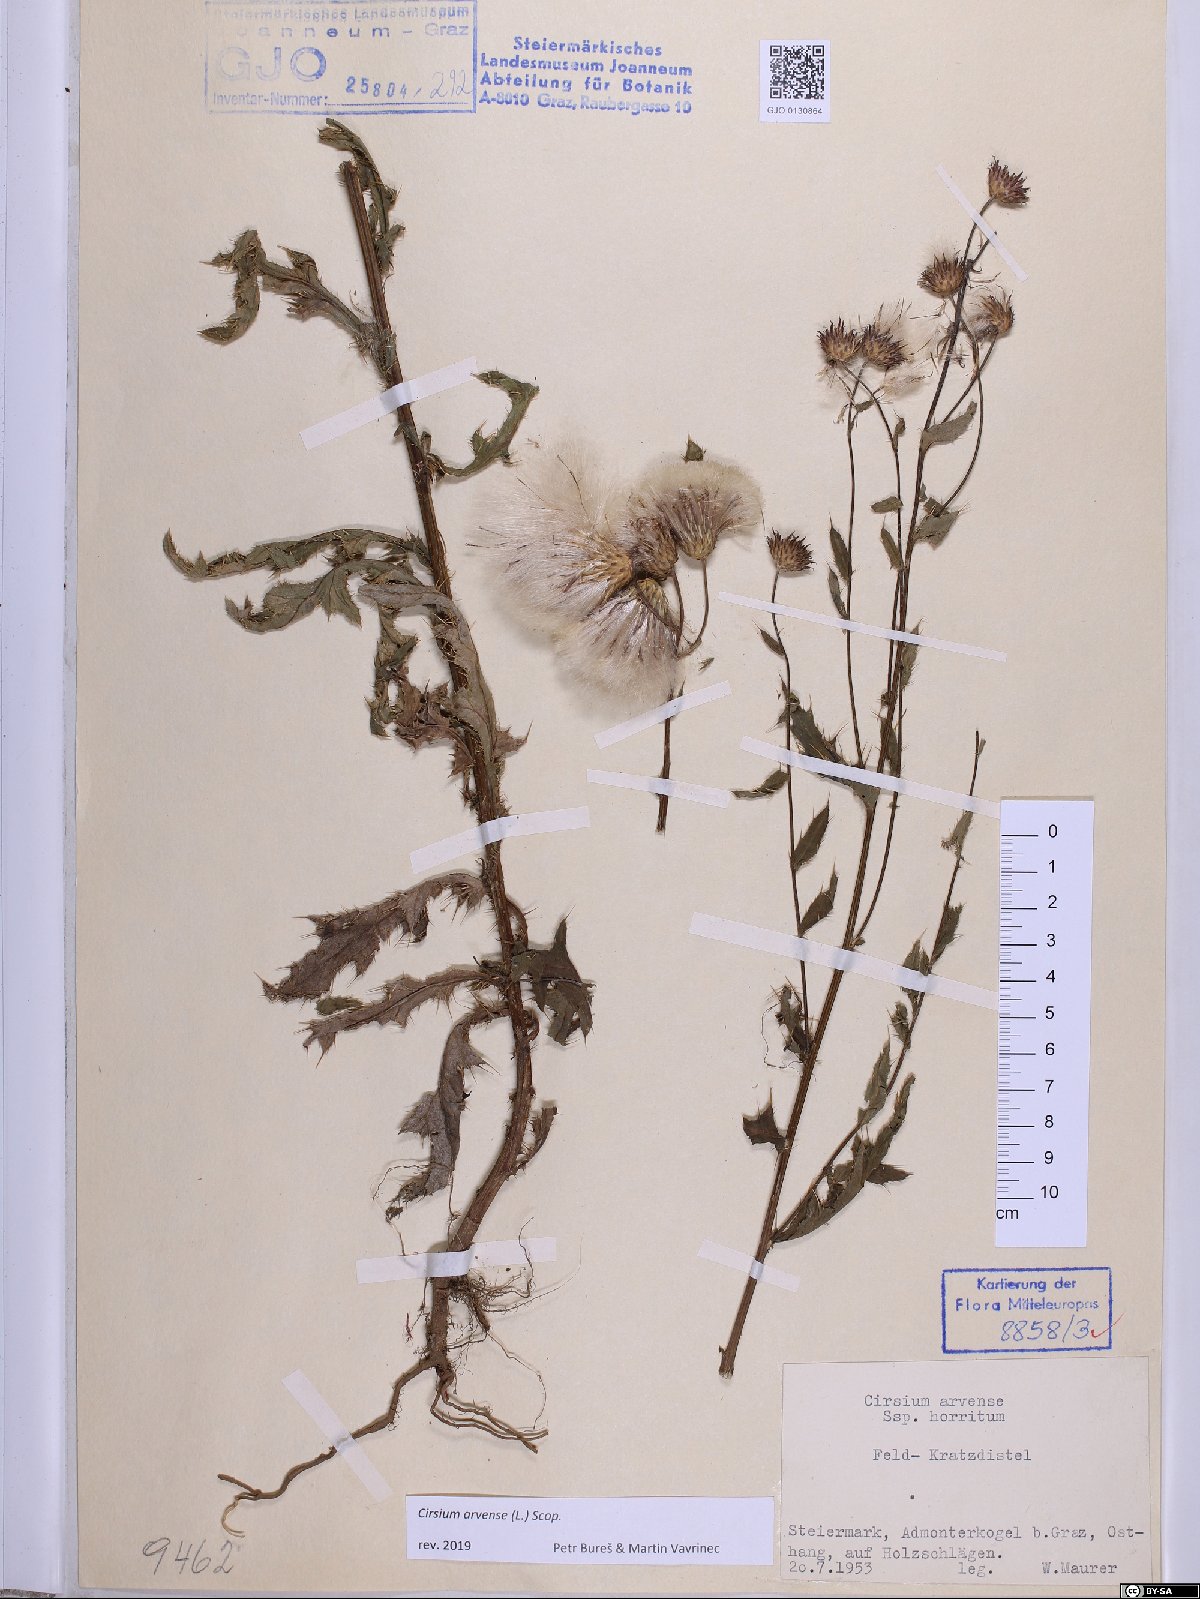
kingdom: Plantae
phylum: Tracheophyta
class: Magnoliopsida
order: Asterales
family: Asteraceae
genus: Cirsium
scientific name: Cirsium arvense
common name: Creeping thistle
